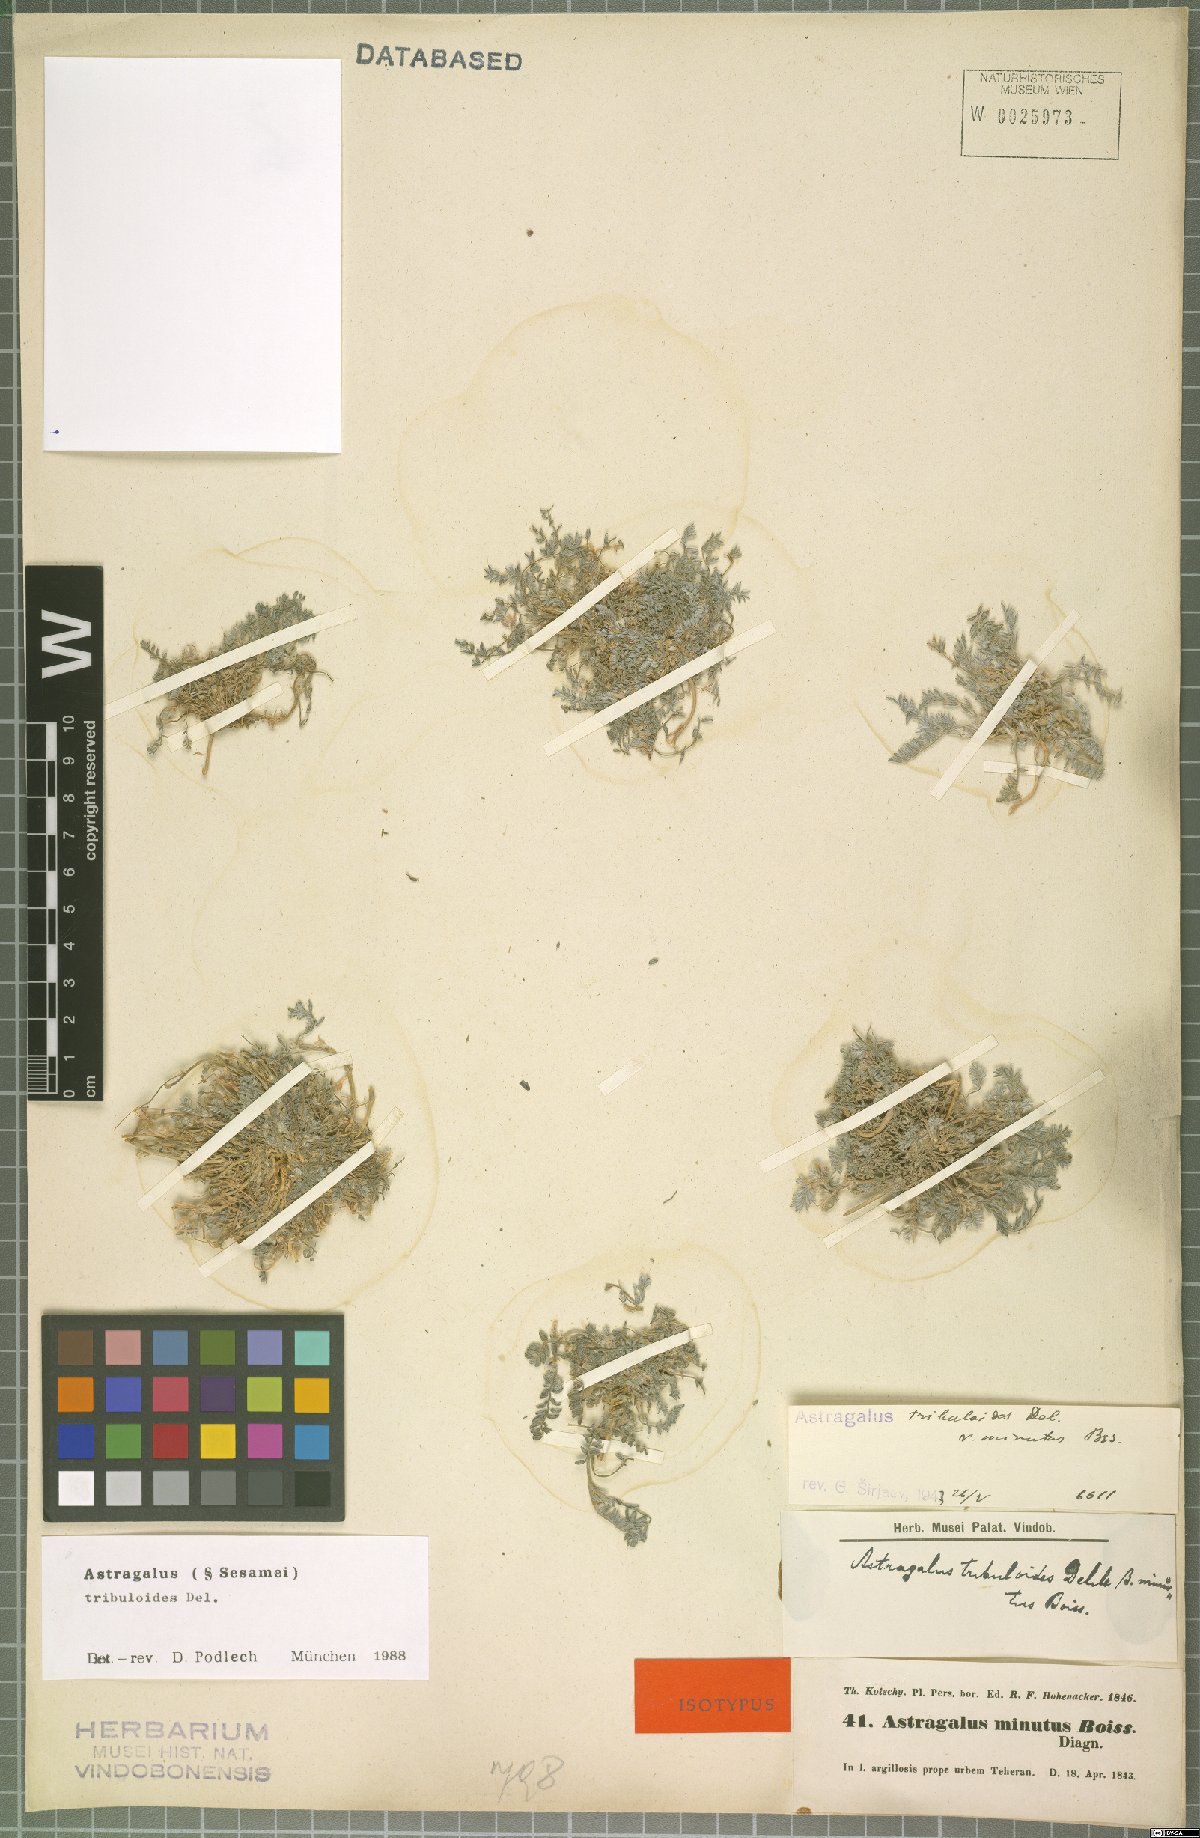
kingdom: Plantae
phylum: Tracheophyta
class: Magnoliopsida
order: Fabales
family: Fabaceae
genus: Astragalus
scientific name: Astragalus tribuloides
